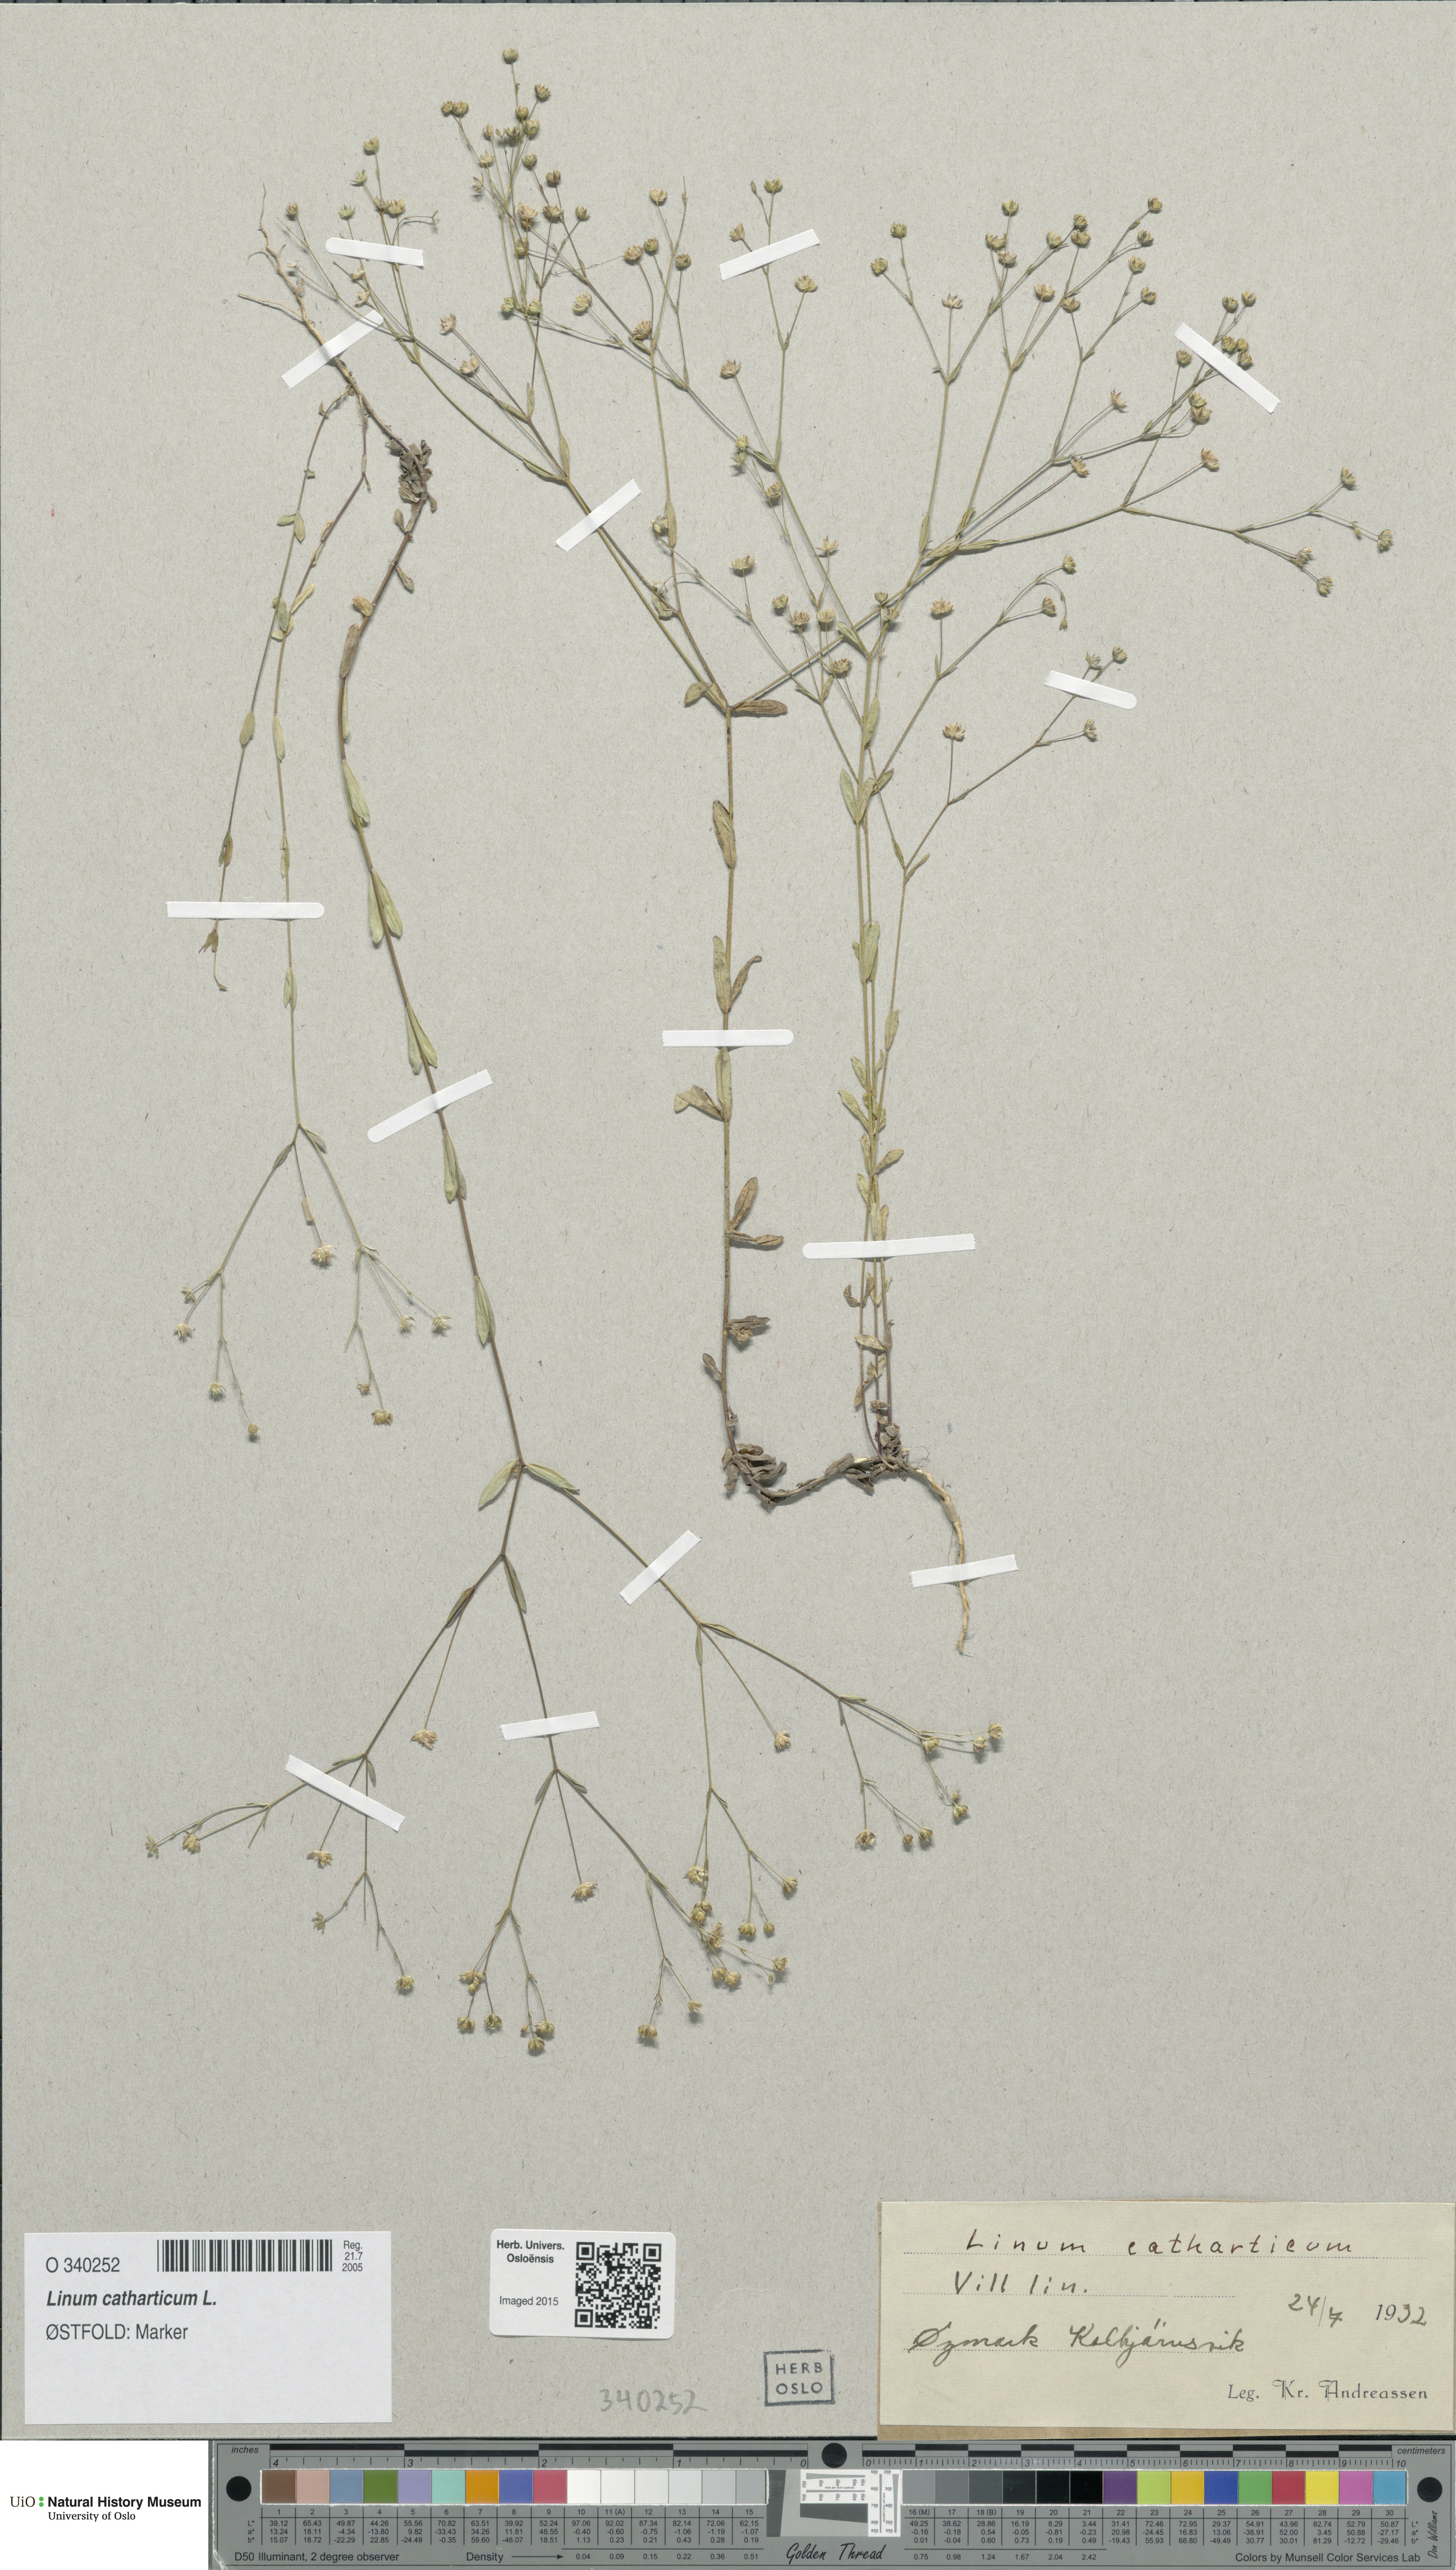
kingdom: Plantae
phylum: Tracheophyta
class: Magnoliopsida
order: Malpighiales
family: Linaceae
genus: Linum
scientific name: Linum catharticum
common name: Fairy flax
